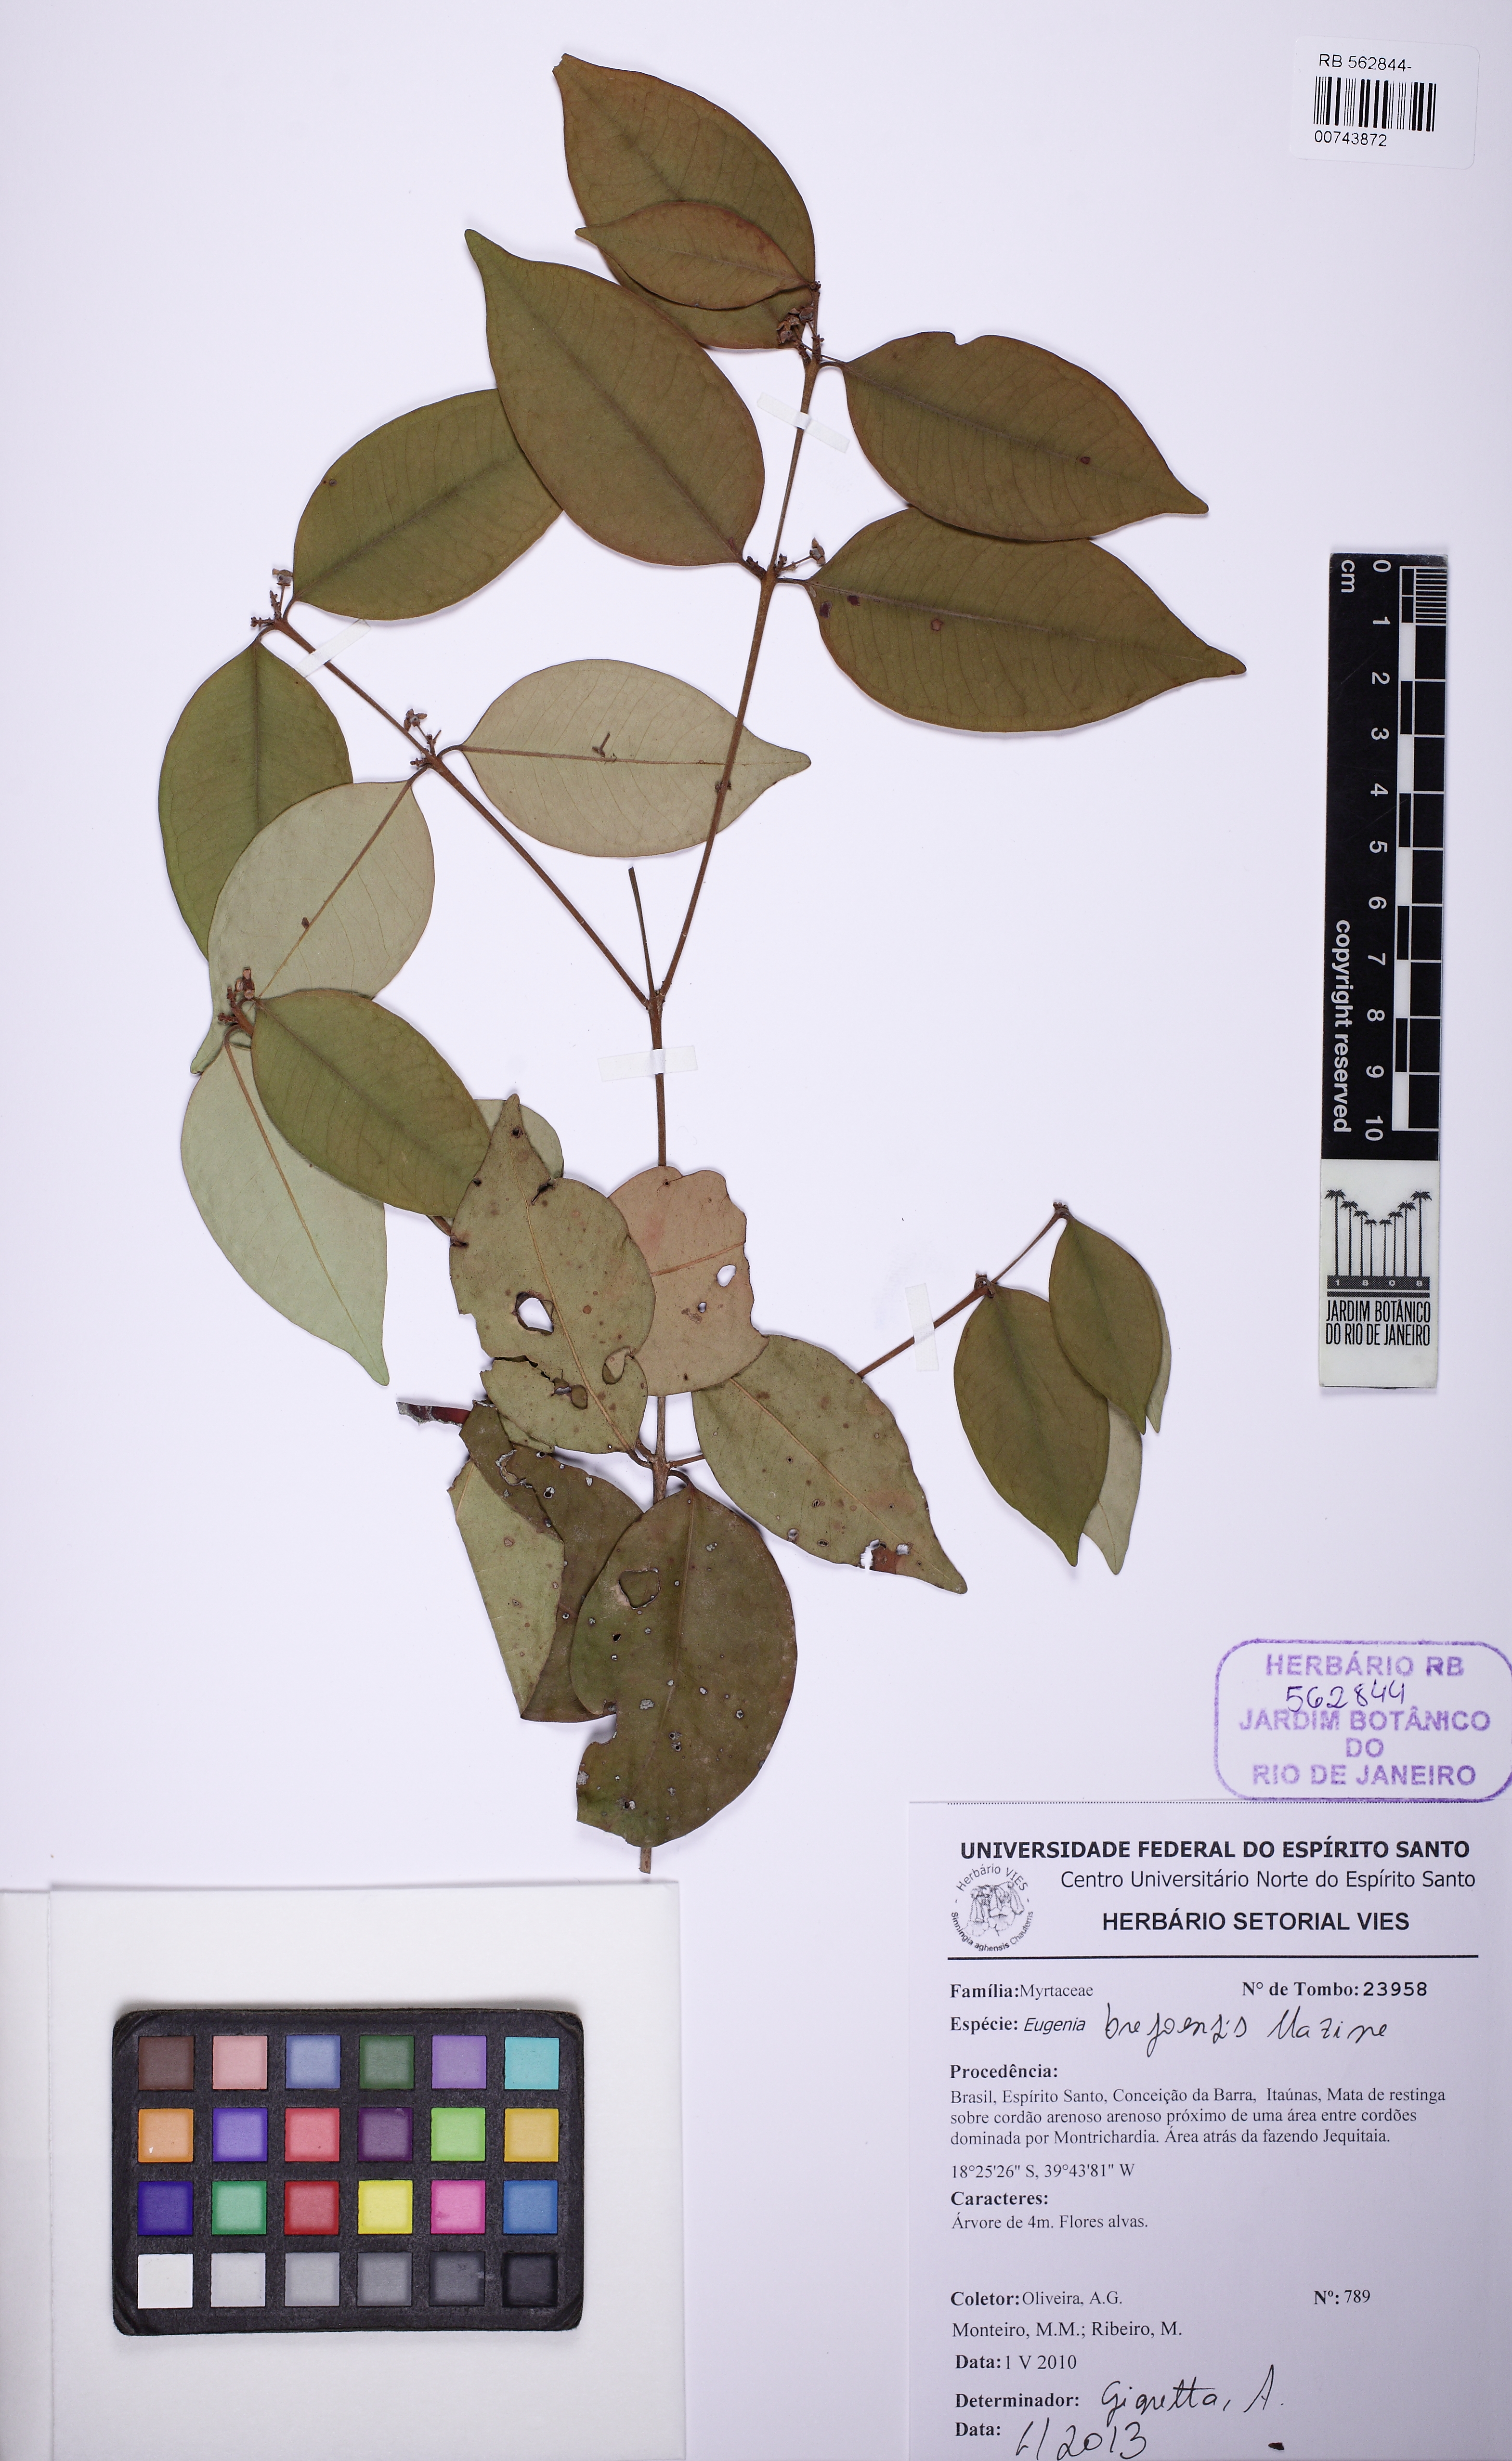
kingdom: Plantae
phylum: Tracheophyta
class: Magnoliopsida
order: Myrtales
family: Myrtaceae
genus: Eugenia
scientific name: Eugenia brejoensis
